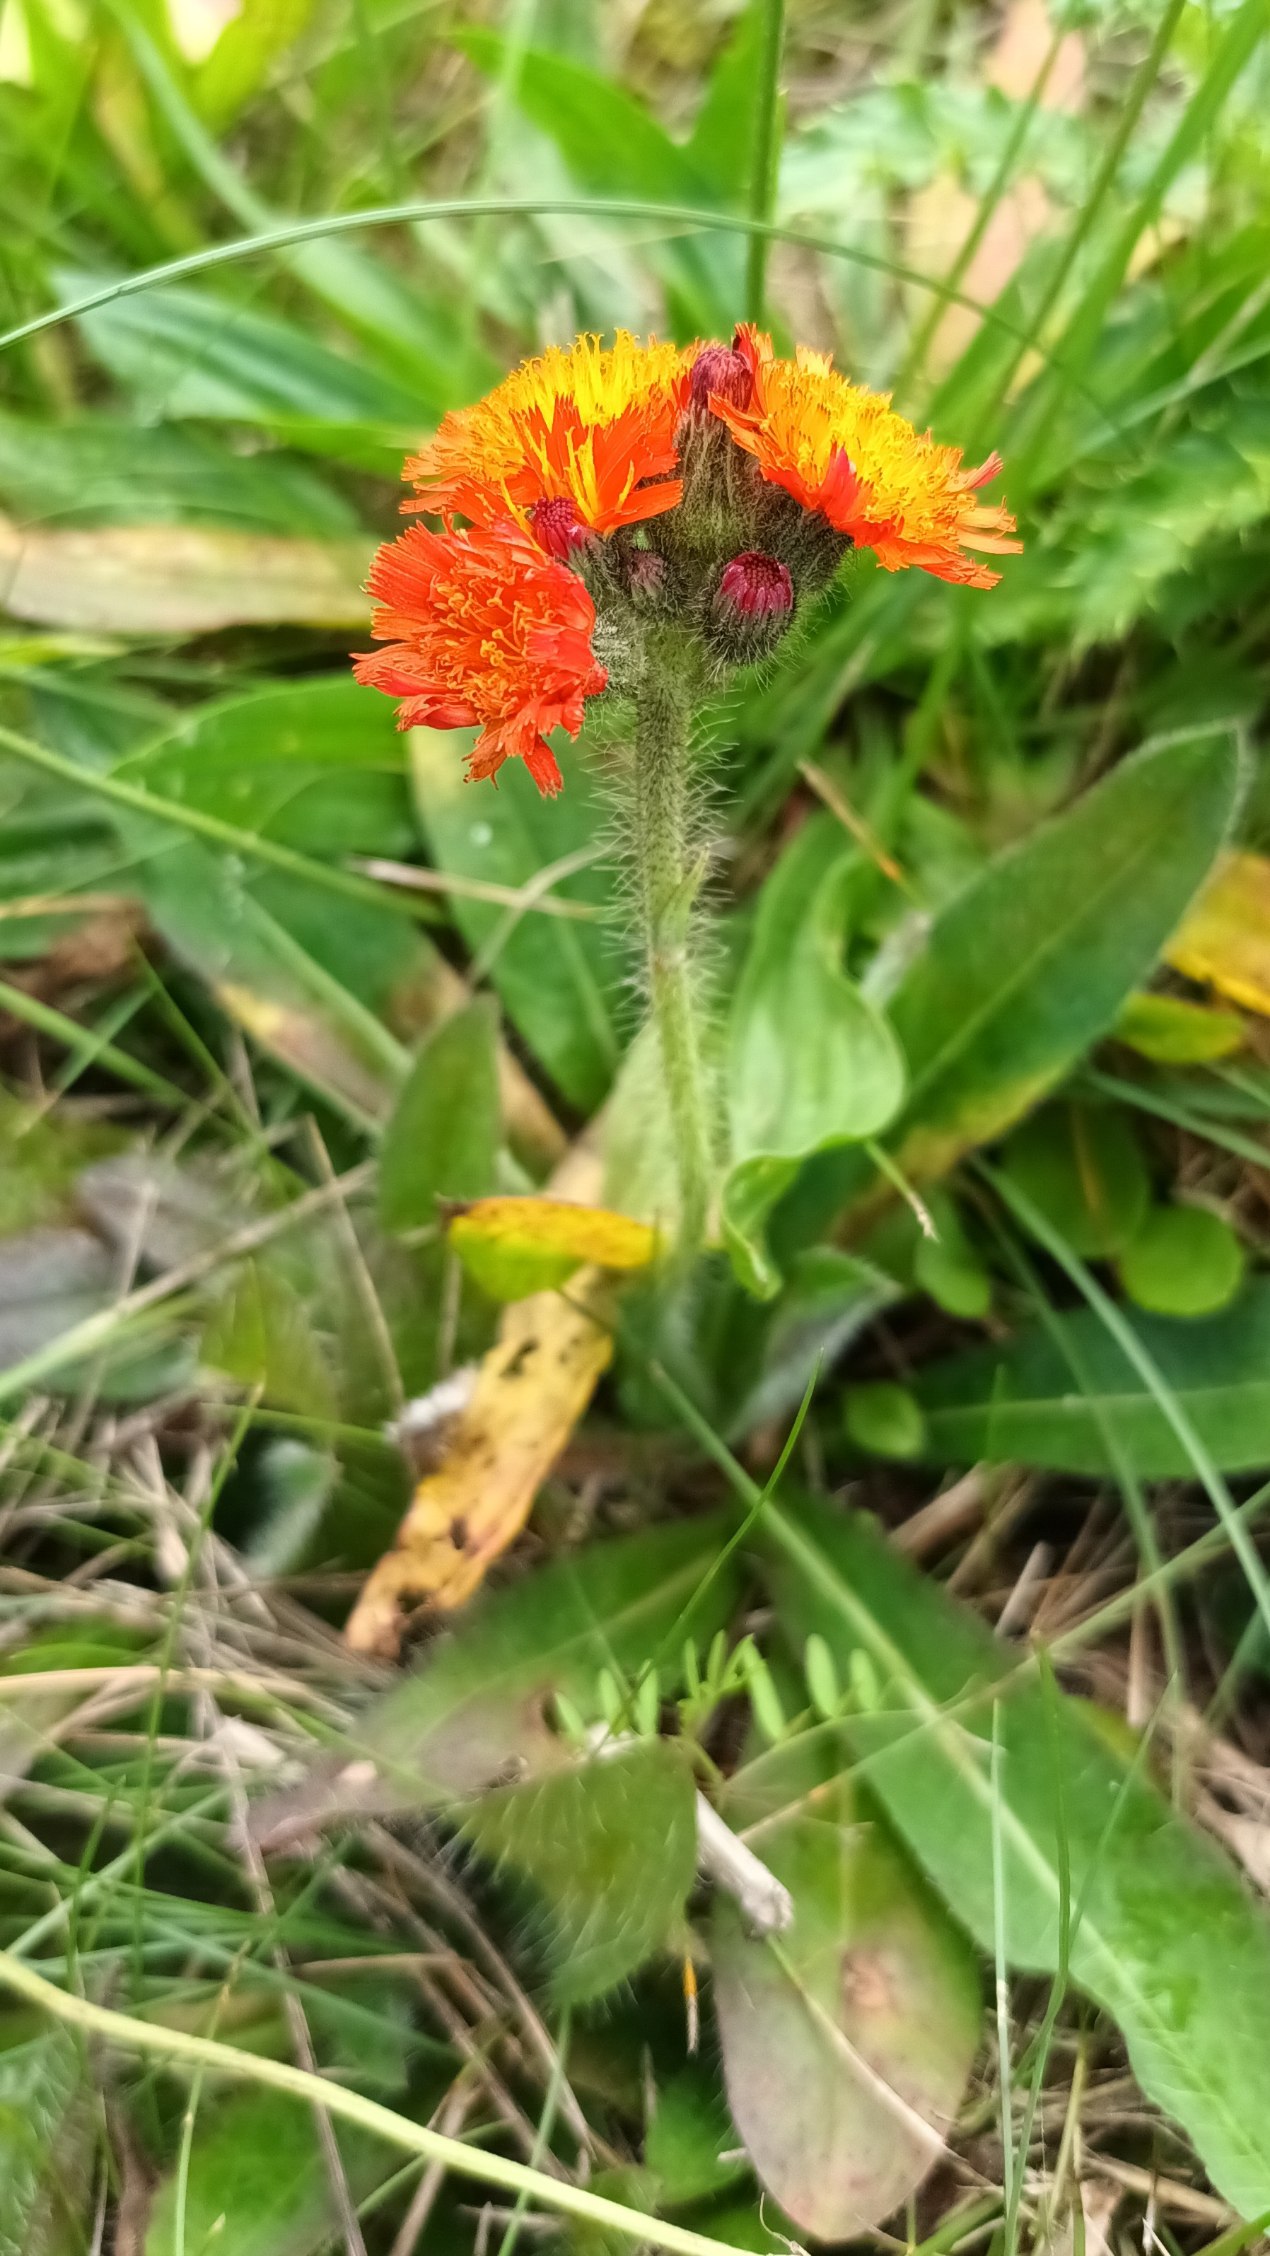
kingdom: Plantae
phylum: Tracheophyta
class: Magnoliopsida
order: Asterales
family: Asteraceae
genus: Pilosella
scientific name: Pilosella aurantiaca
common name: Pomerans-høgeurt
